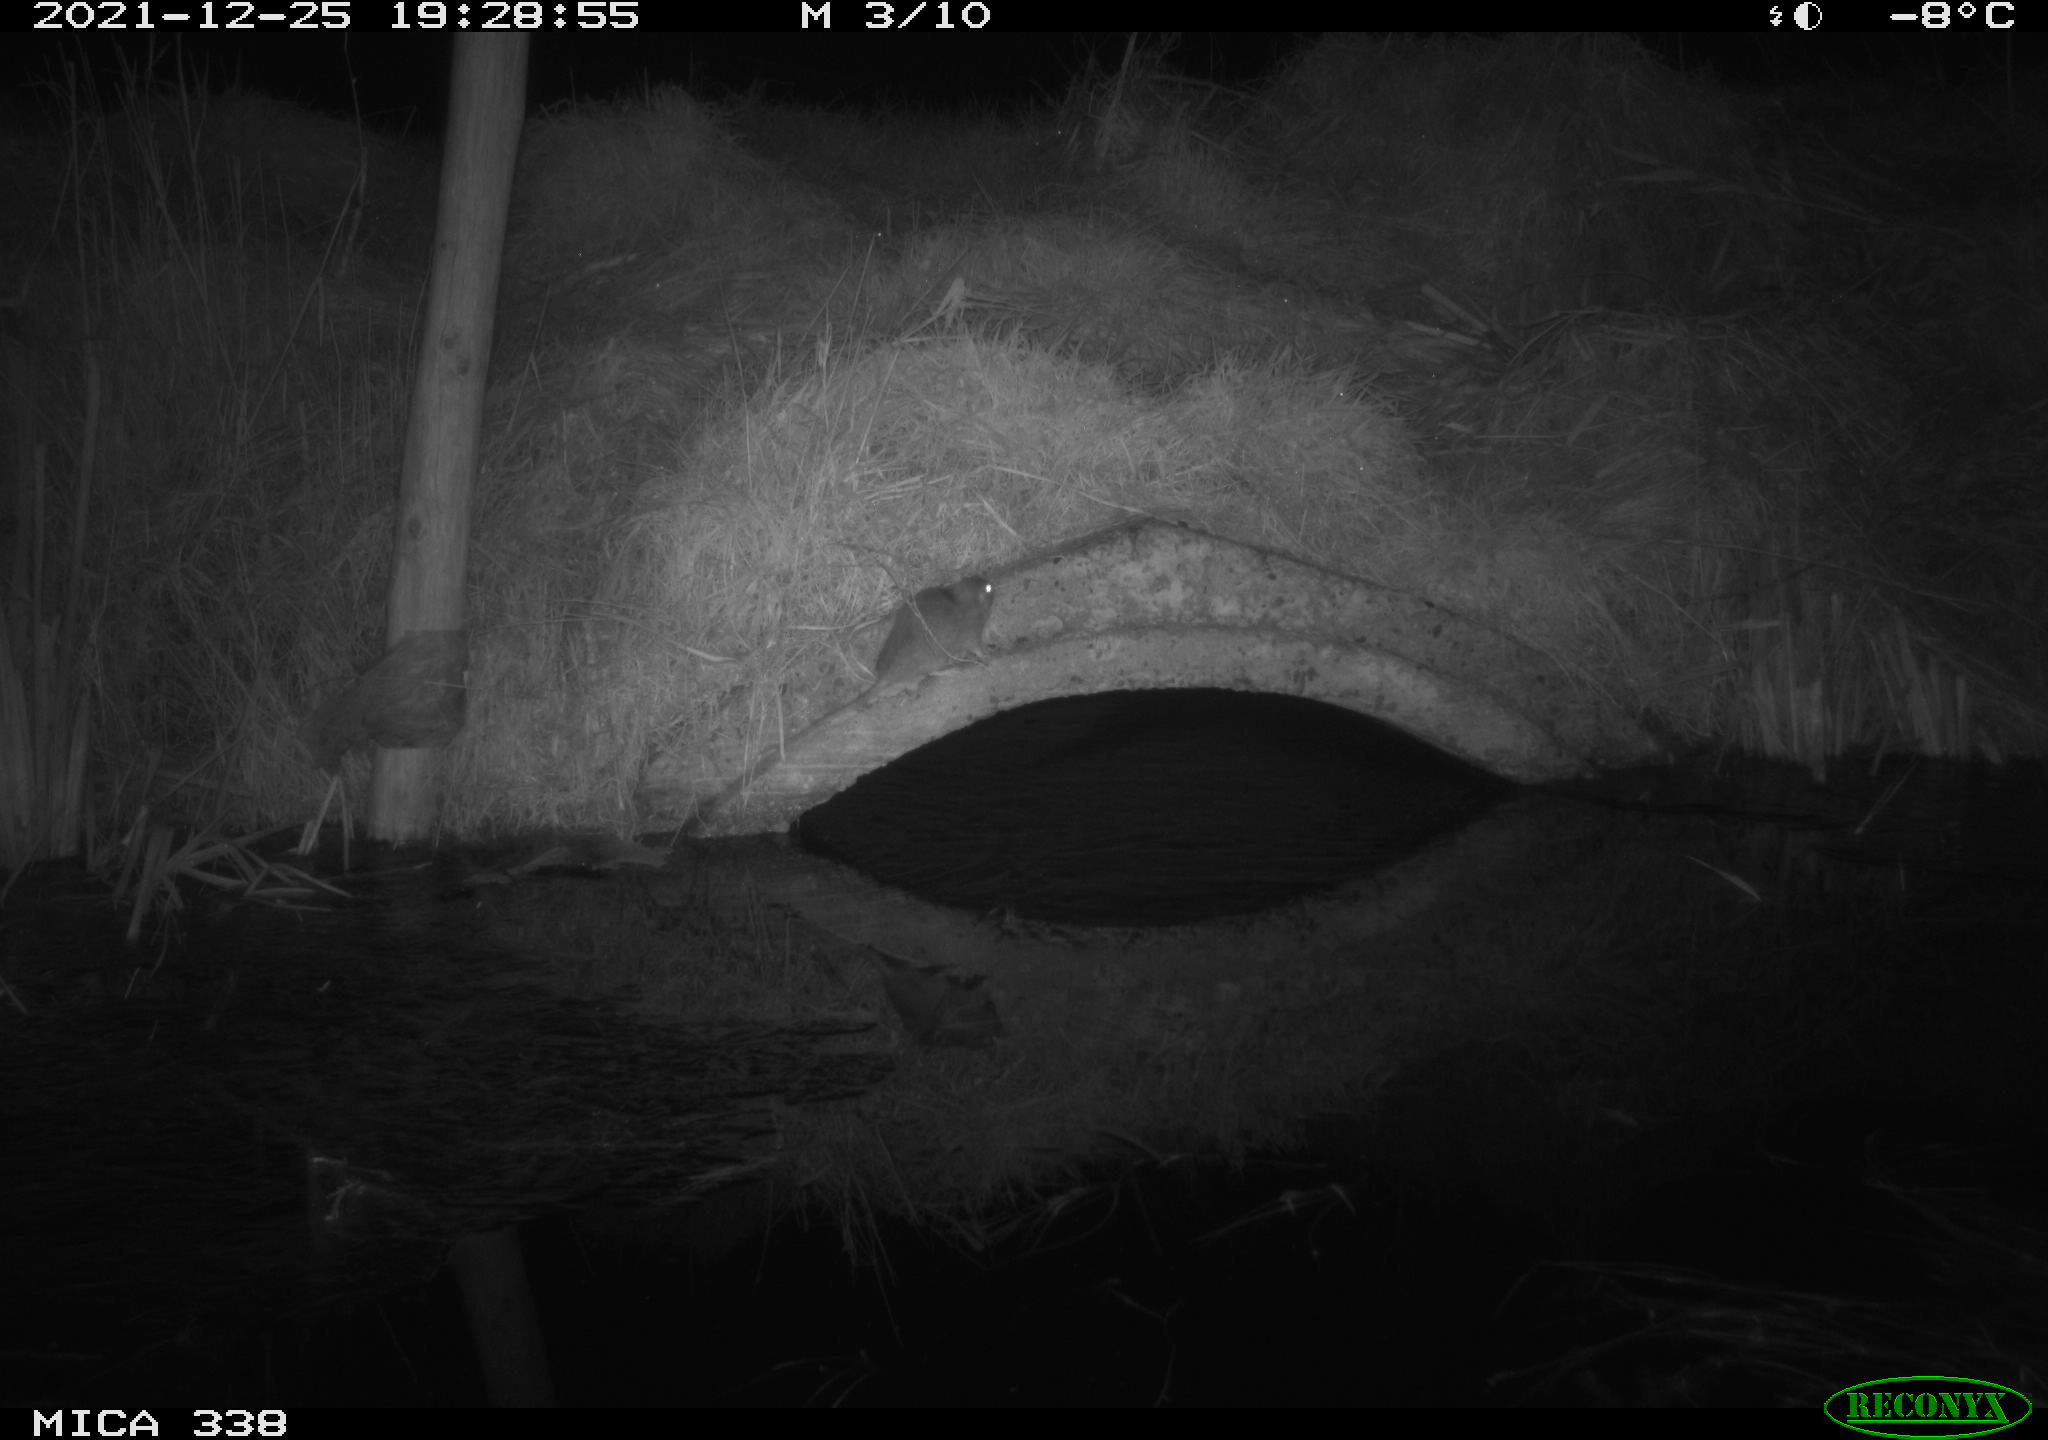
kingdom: Animalia
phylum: Chordata
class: Mammalia
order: Rodentia
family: Muridae
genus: Rattus
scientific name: Rattus norvegicus
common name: Brown rat
